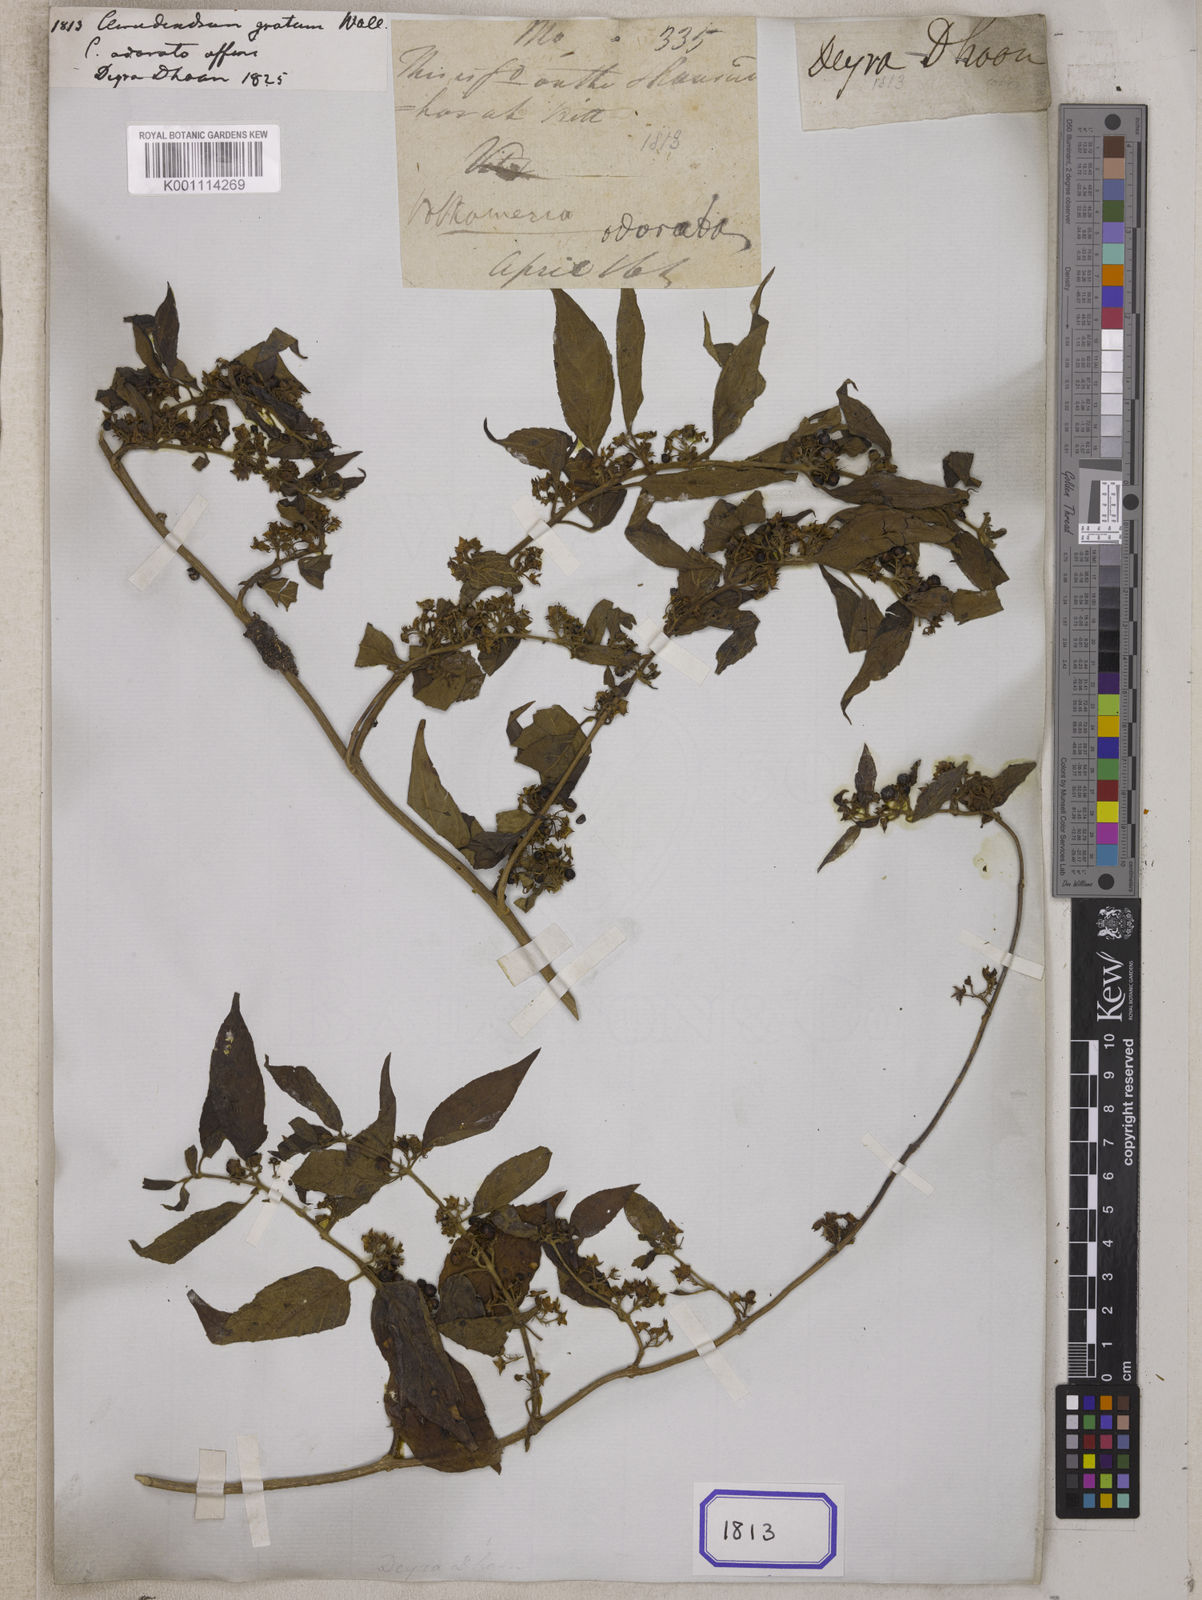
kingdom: Plantae
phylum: Tracheophyta
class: Magnoliopsida
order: Lamiales
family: Lamiaceae
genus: Pseudocaryopteris
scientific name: Pseudocaryopteris foetida
